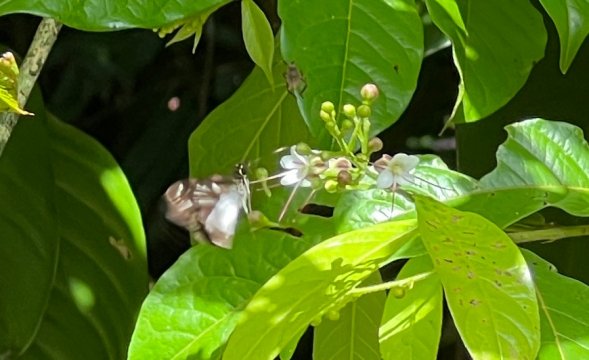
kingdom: Animalia
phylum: Arthropoda
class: Insecta
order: Lepidoptera
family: Hesperiidae
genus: Hyalothyrus
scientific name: Hyalothyrus neleus
